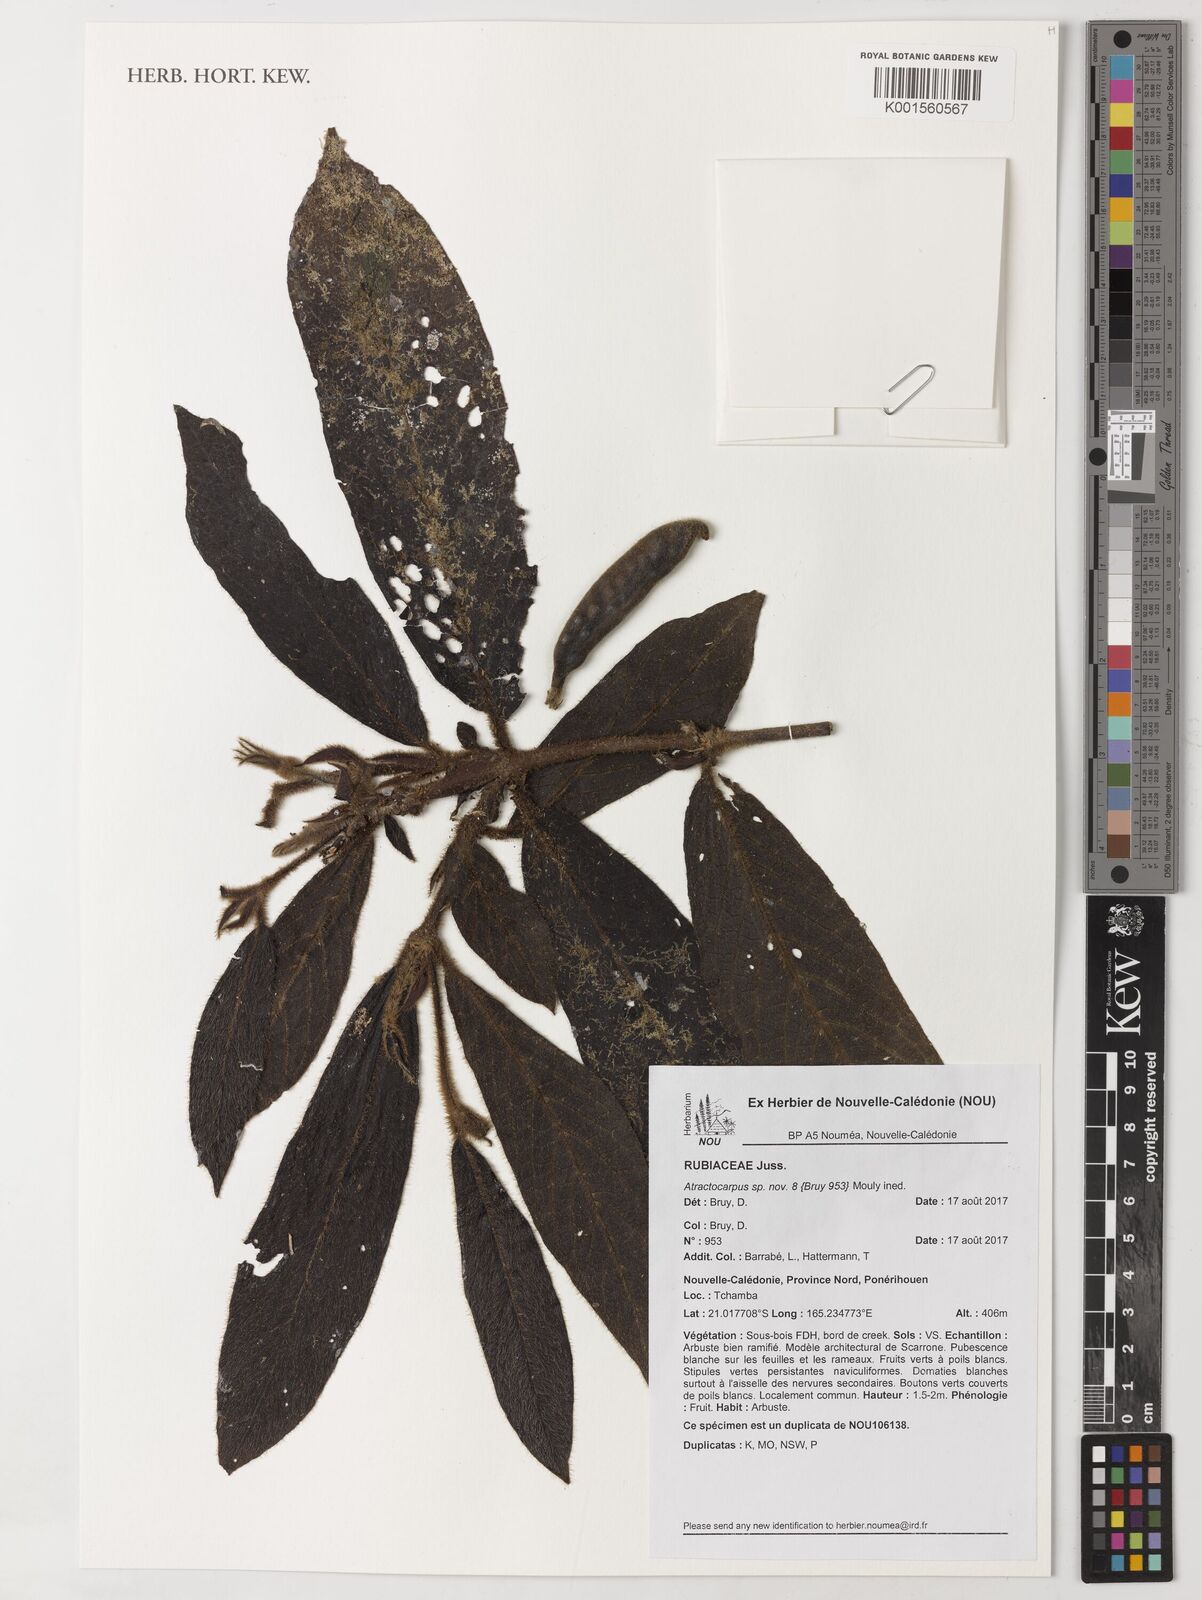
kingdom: Plantae
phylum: Tracheophyta
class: Magnoliopsida
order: Gentianales
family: Rubiaceae
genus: Atractocarpus
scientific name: Atractocarpus
